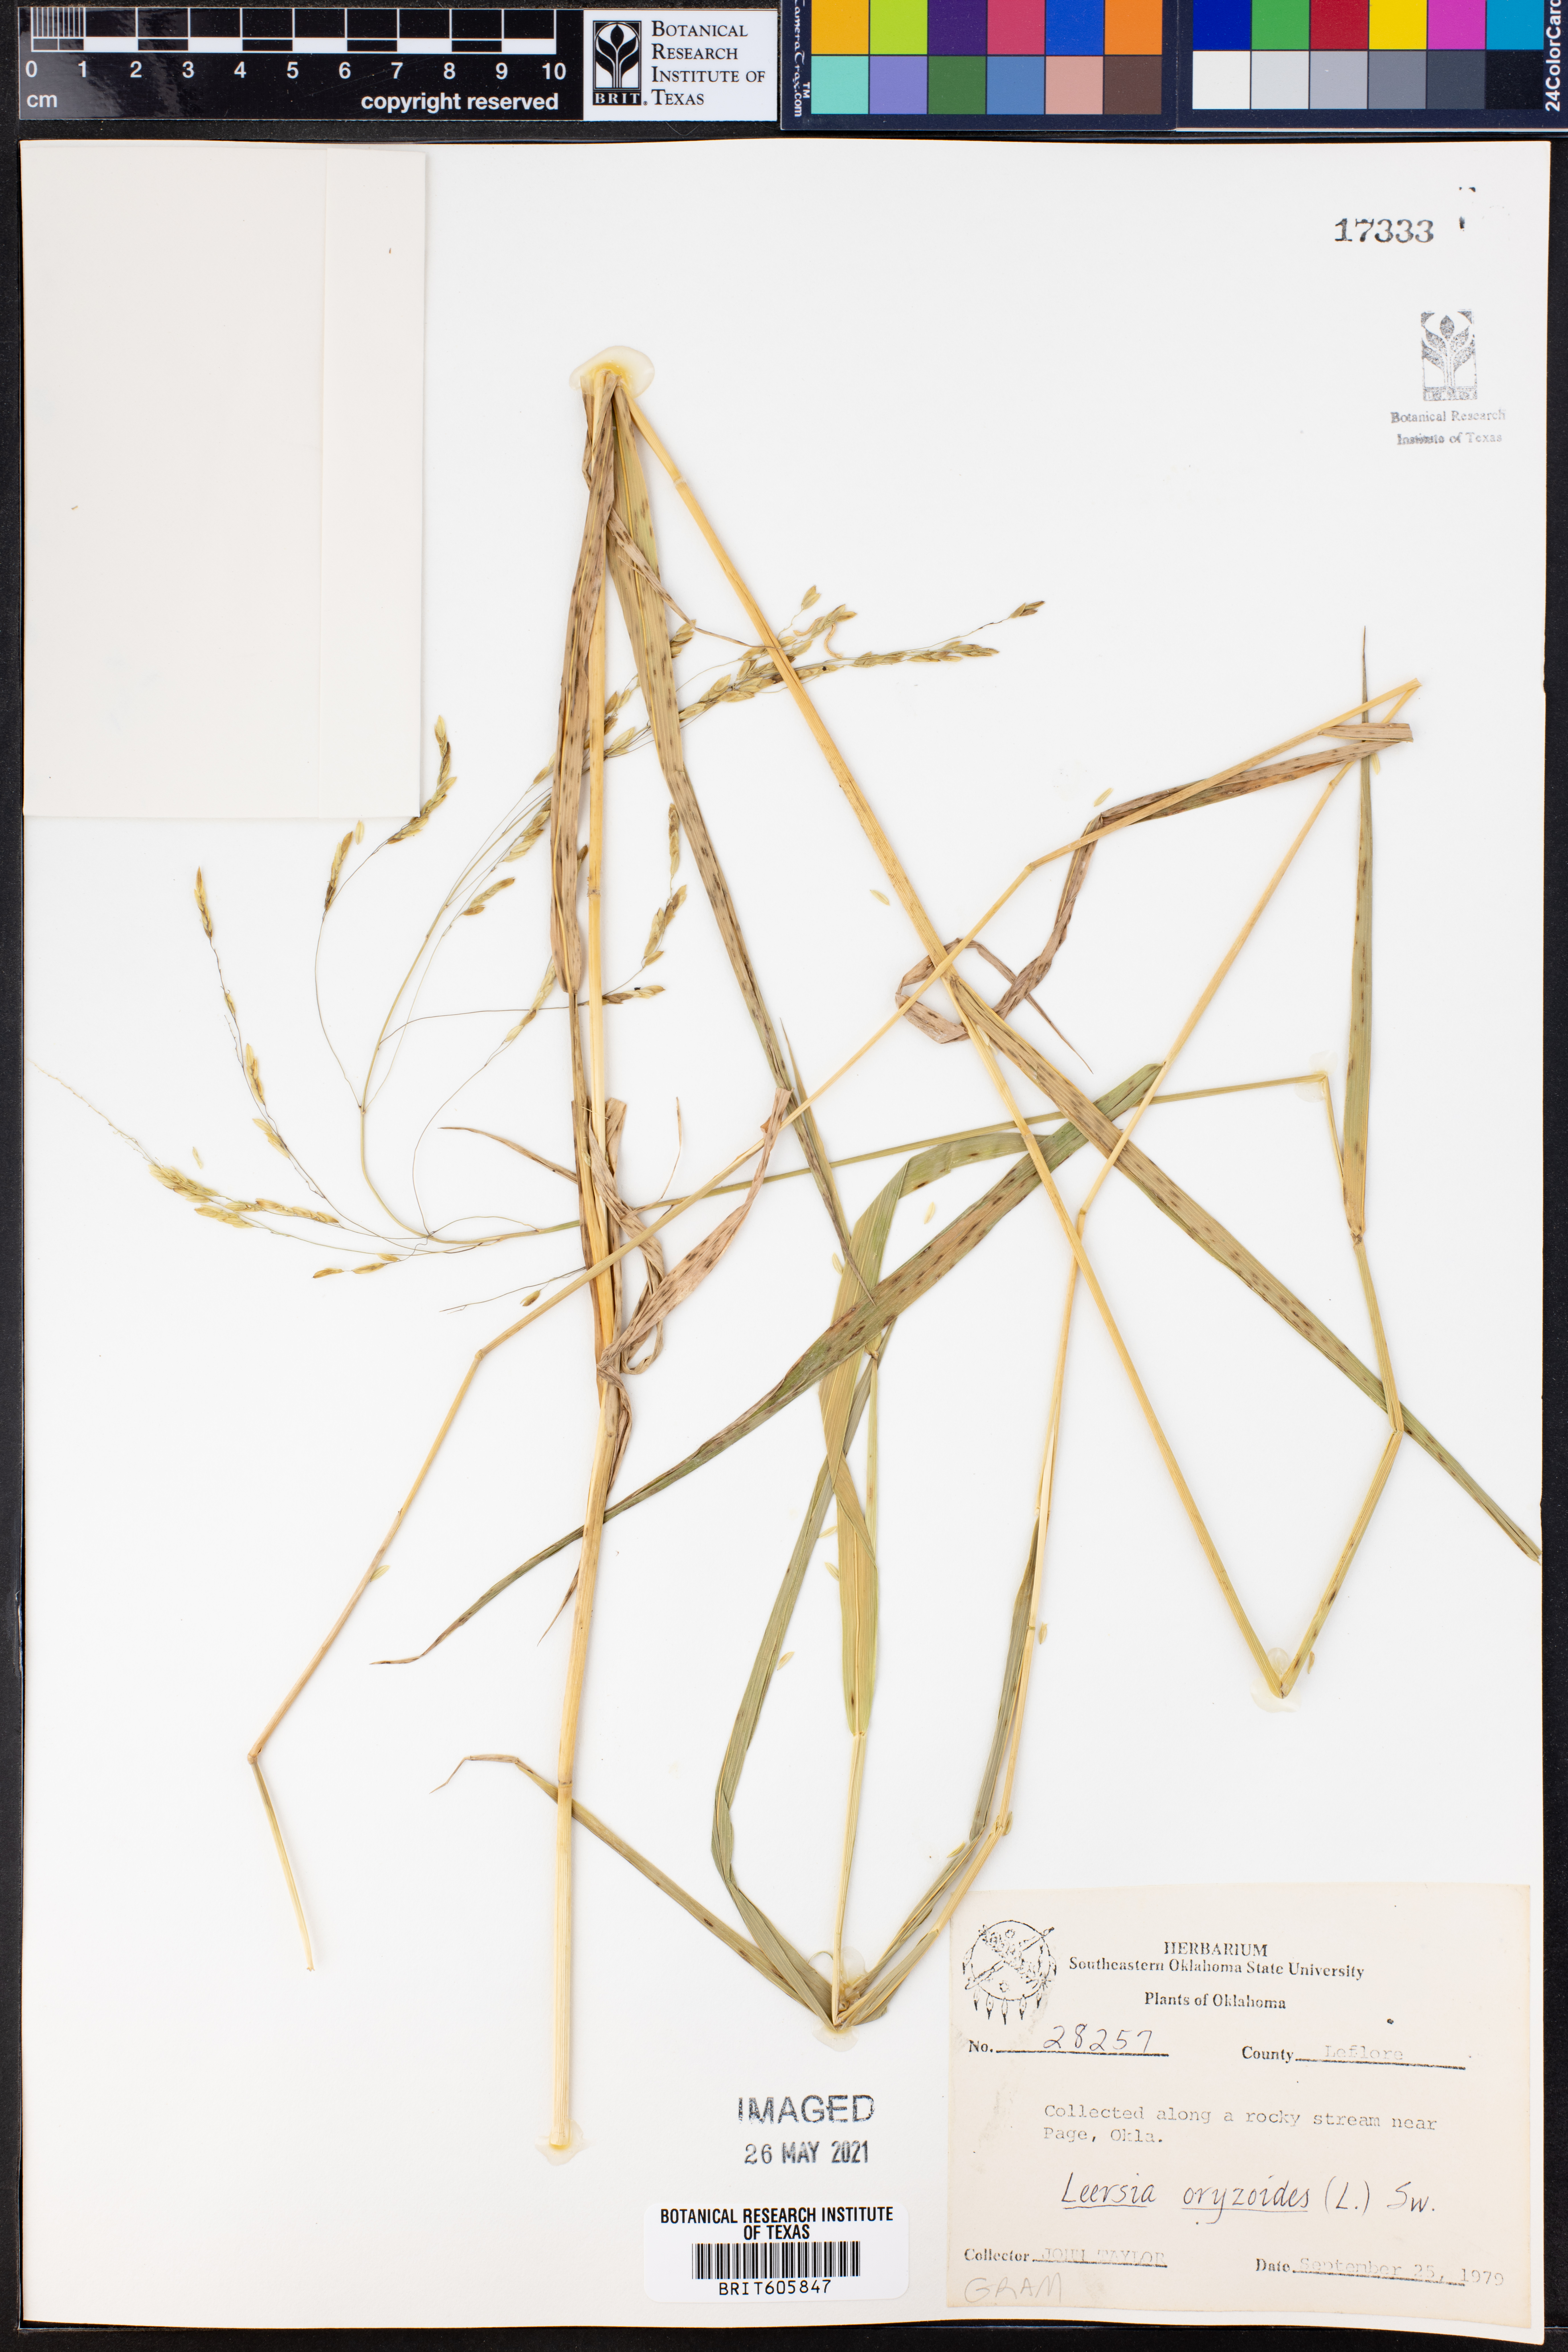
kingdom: Plantae
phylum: Tracheophyta
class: Liliopsida
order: Poales
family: Poaceae
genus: Leersia
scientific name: Leersia oryzoides
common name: Cut-grass
